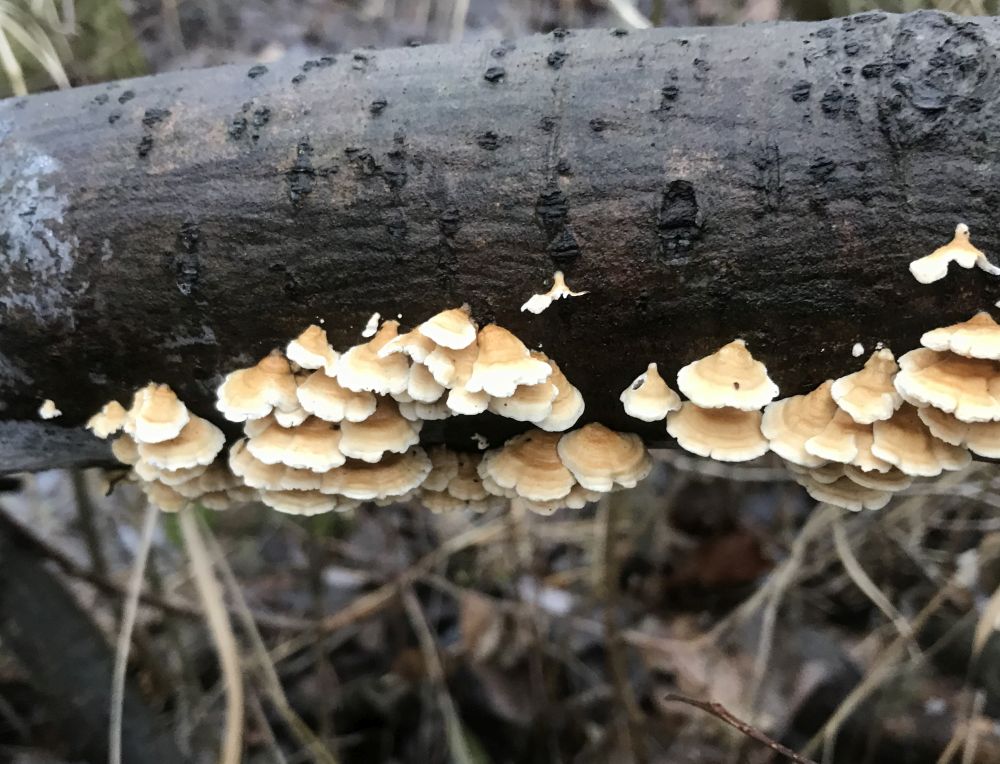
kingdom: Fungi
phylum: Basidiomycota
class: Agaricomycetes
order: Amylocorticiales
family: Amylocorticiaceae
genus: Plicaturopsis
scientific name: Plicaturopsis crispa
